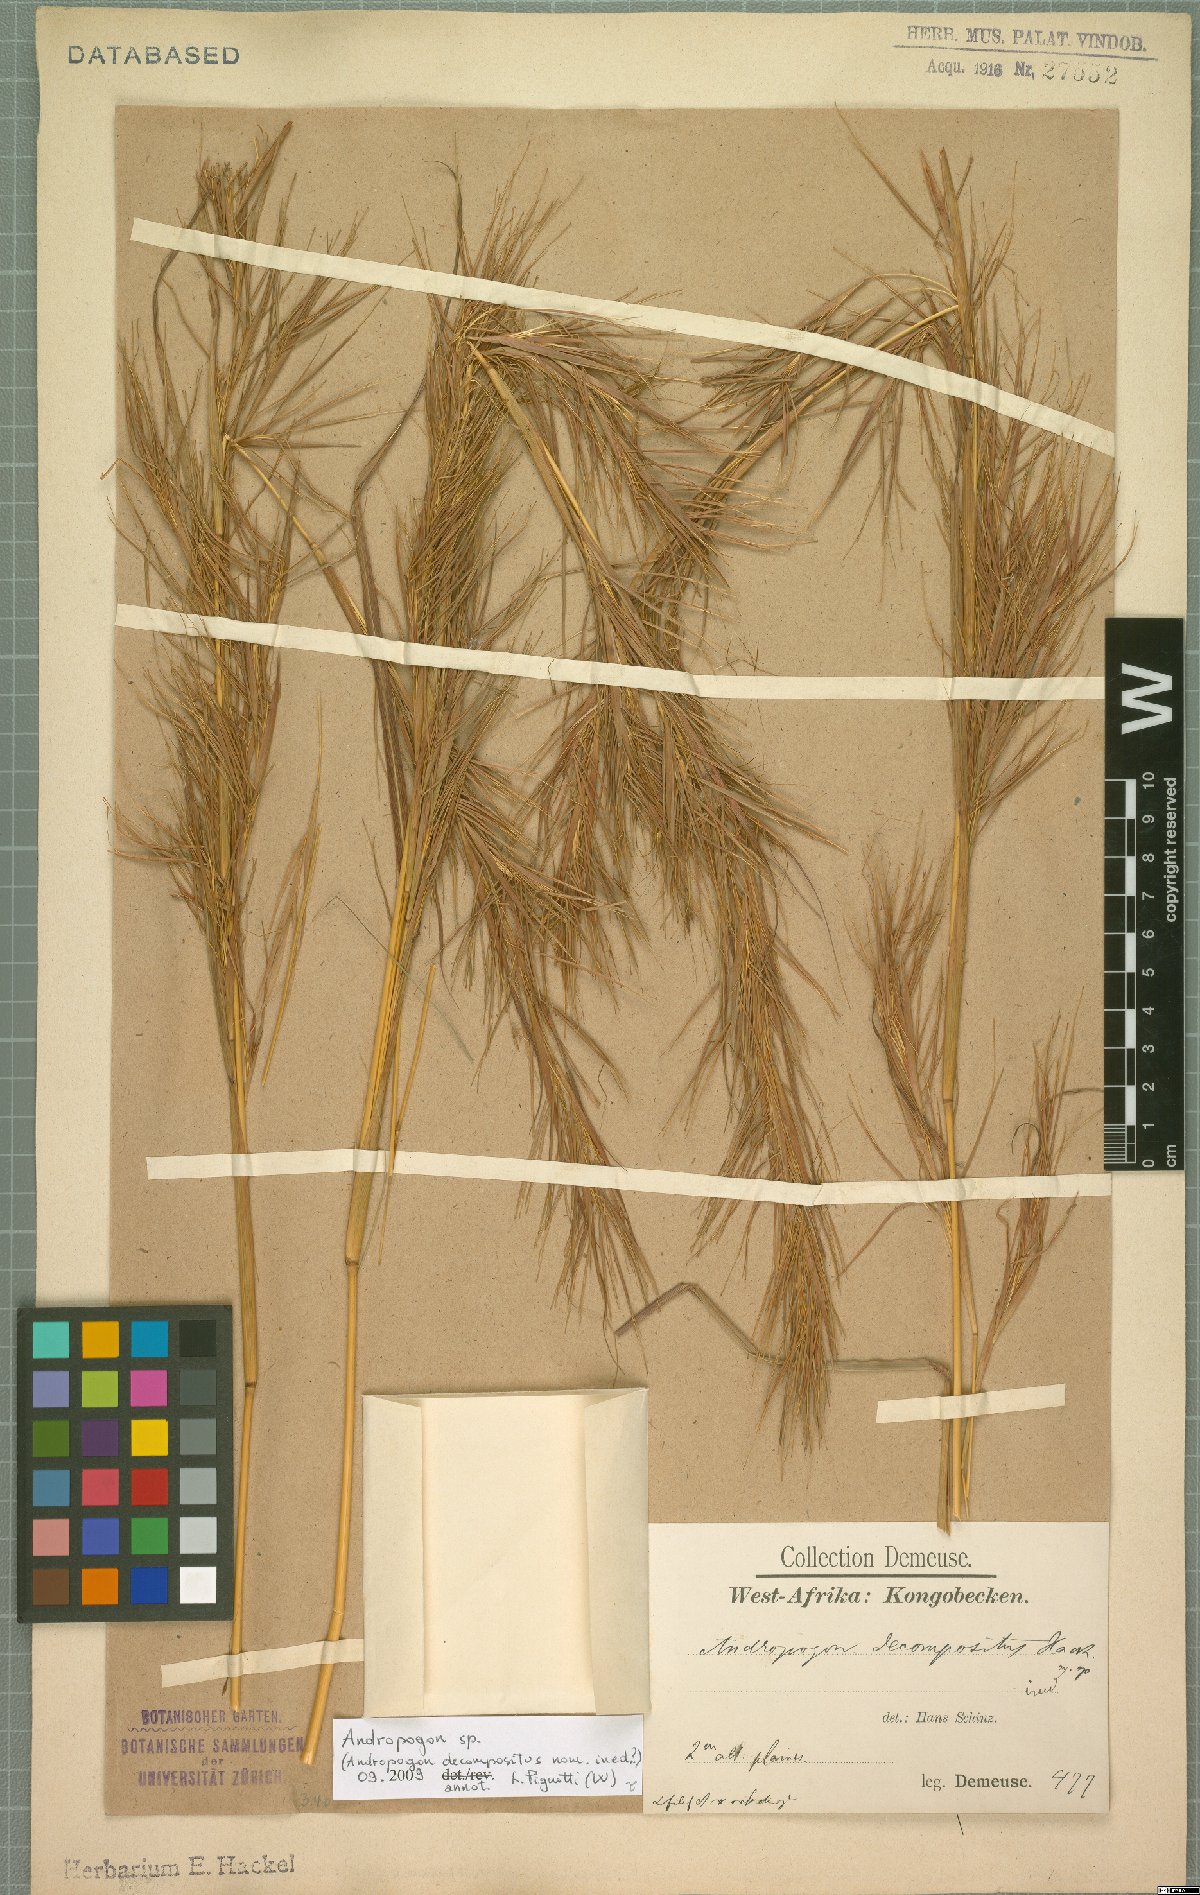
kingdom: Plantae
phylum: Tracheophyta
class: Liliopsida
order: Poales
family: Poaceae
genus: Andropogon
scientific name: Andropogon
